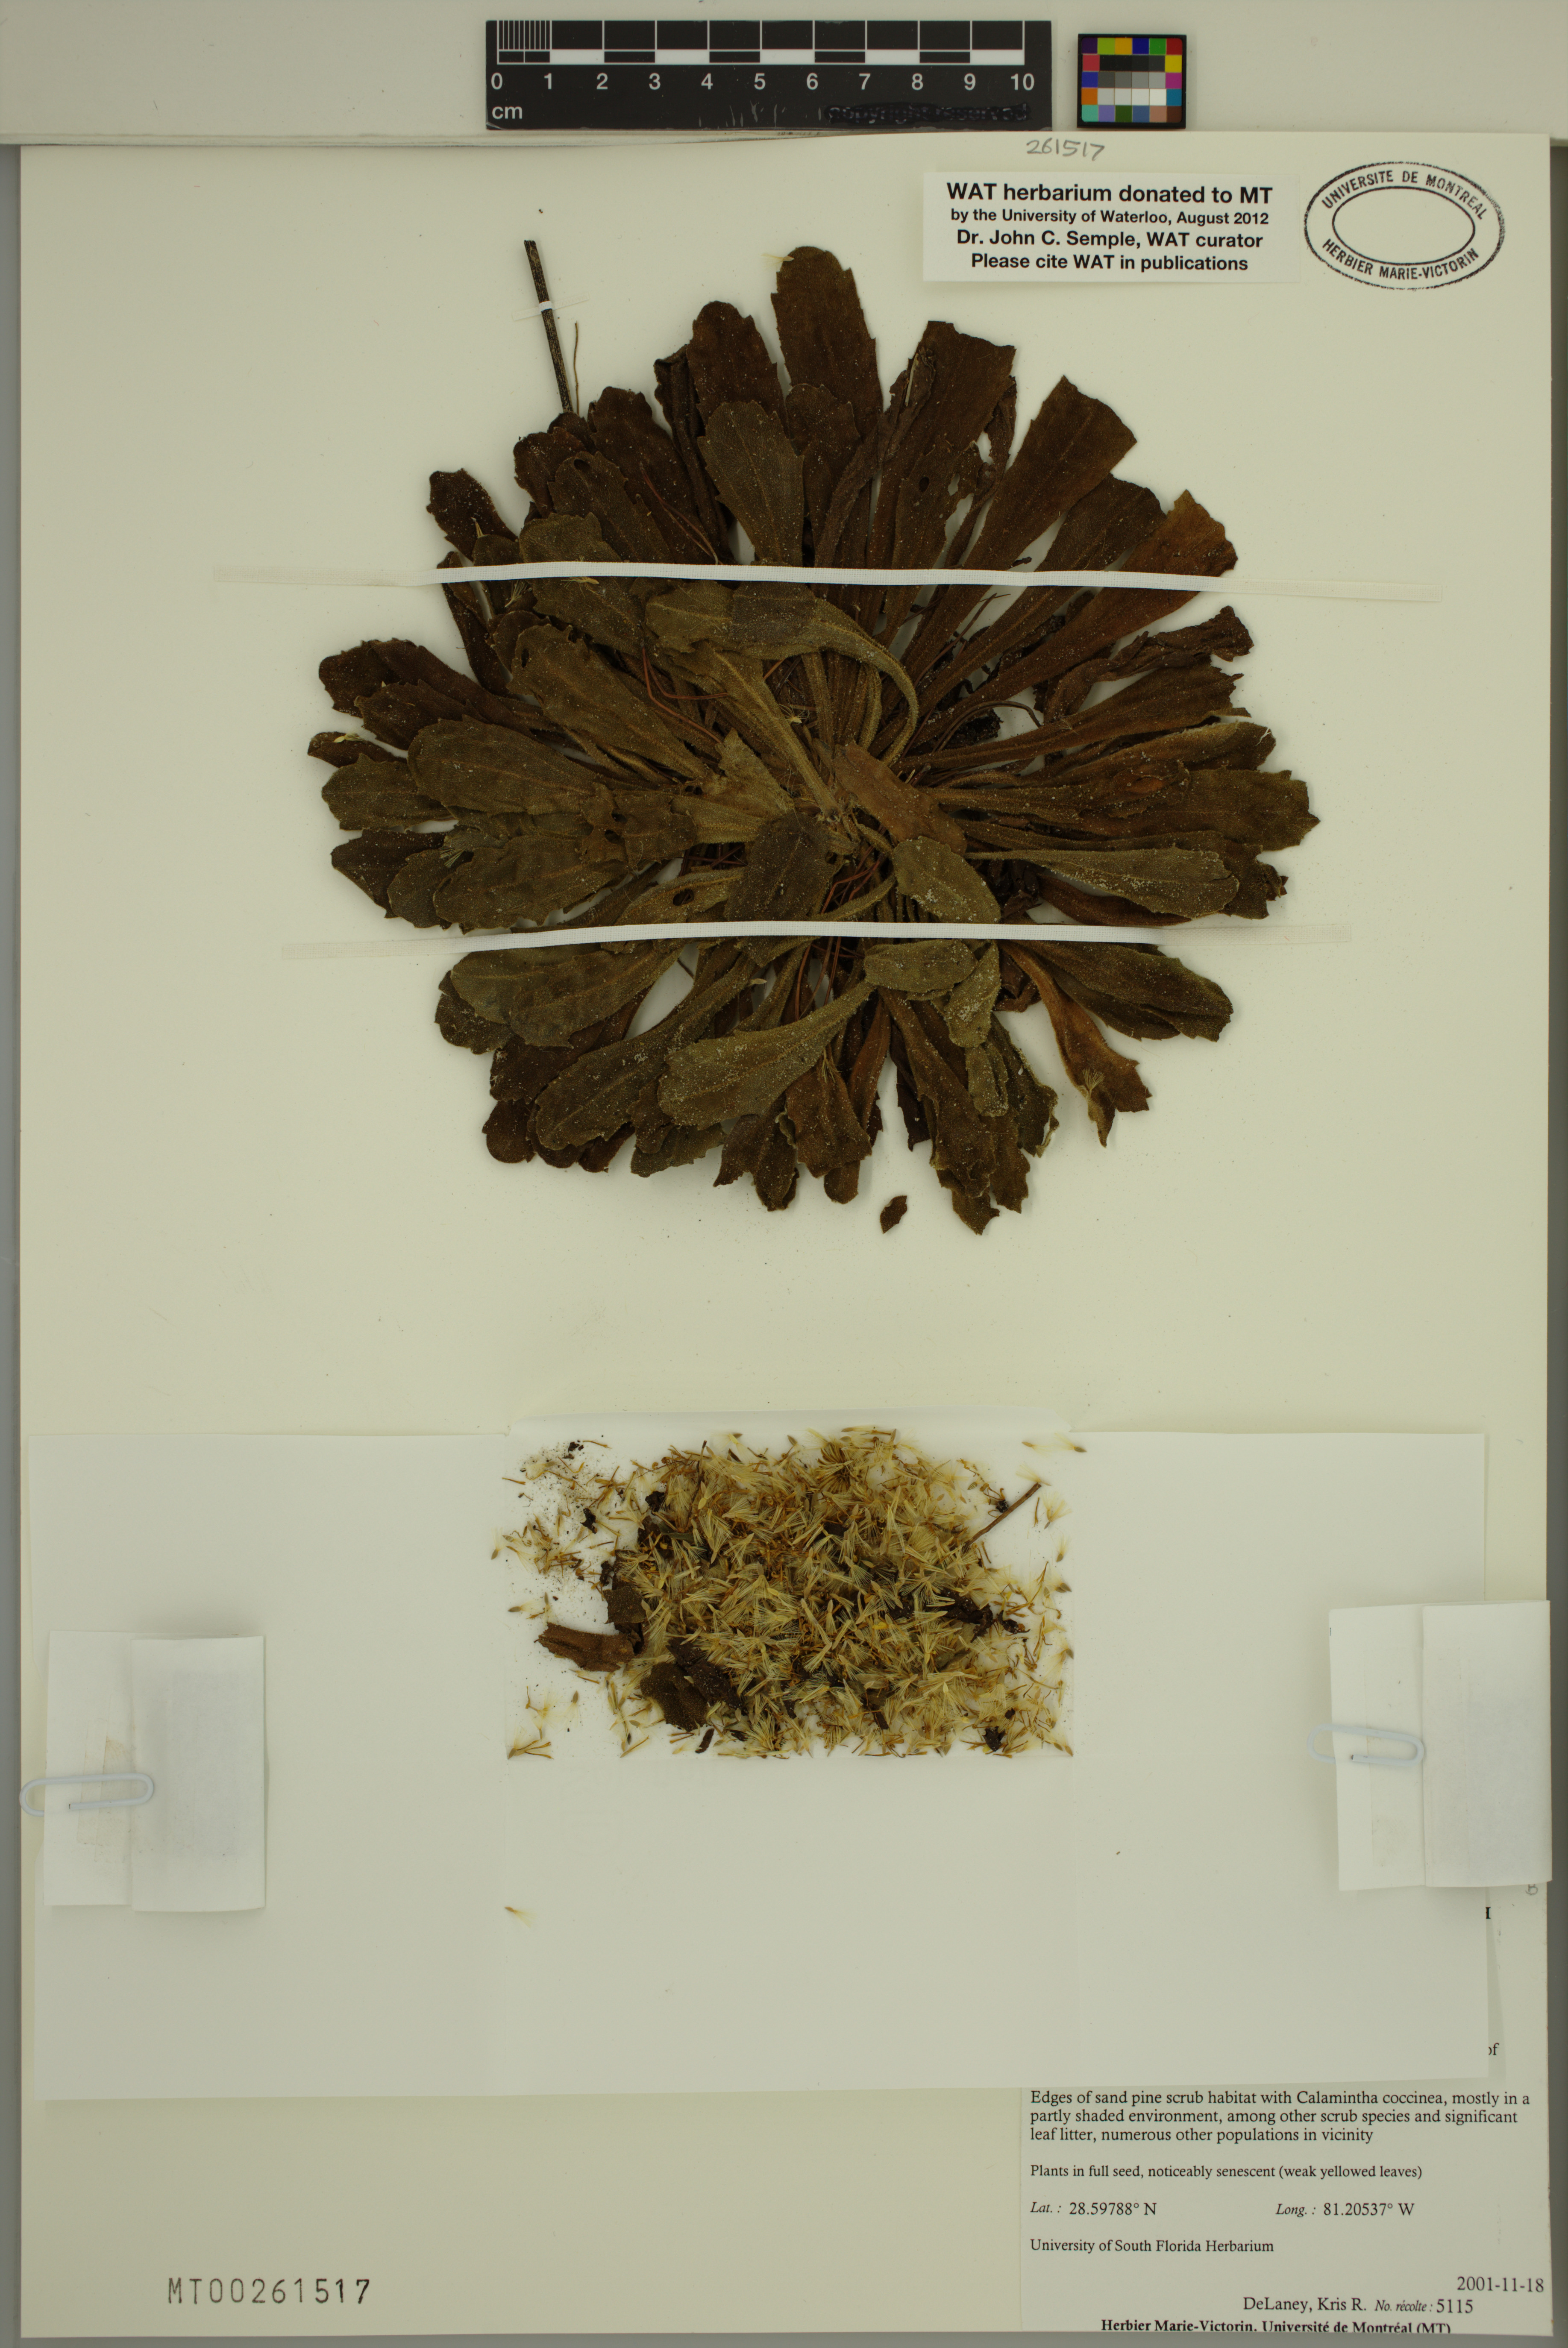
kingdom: Plantae
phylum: Tracheophyta
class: Magnoliopsida
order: Asterales
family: Asteraceae
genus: Chrysopsis
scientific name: Chrysopsis delaneyi
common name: Delaney's goldenaster
